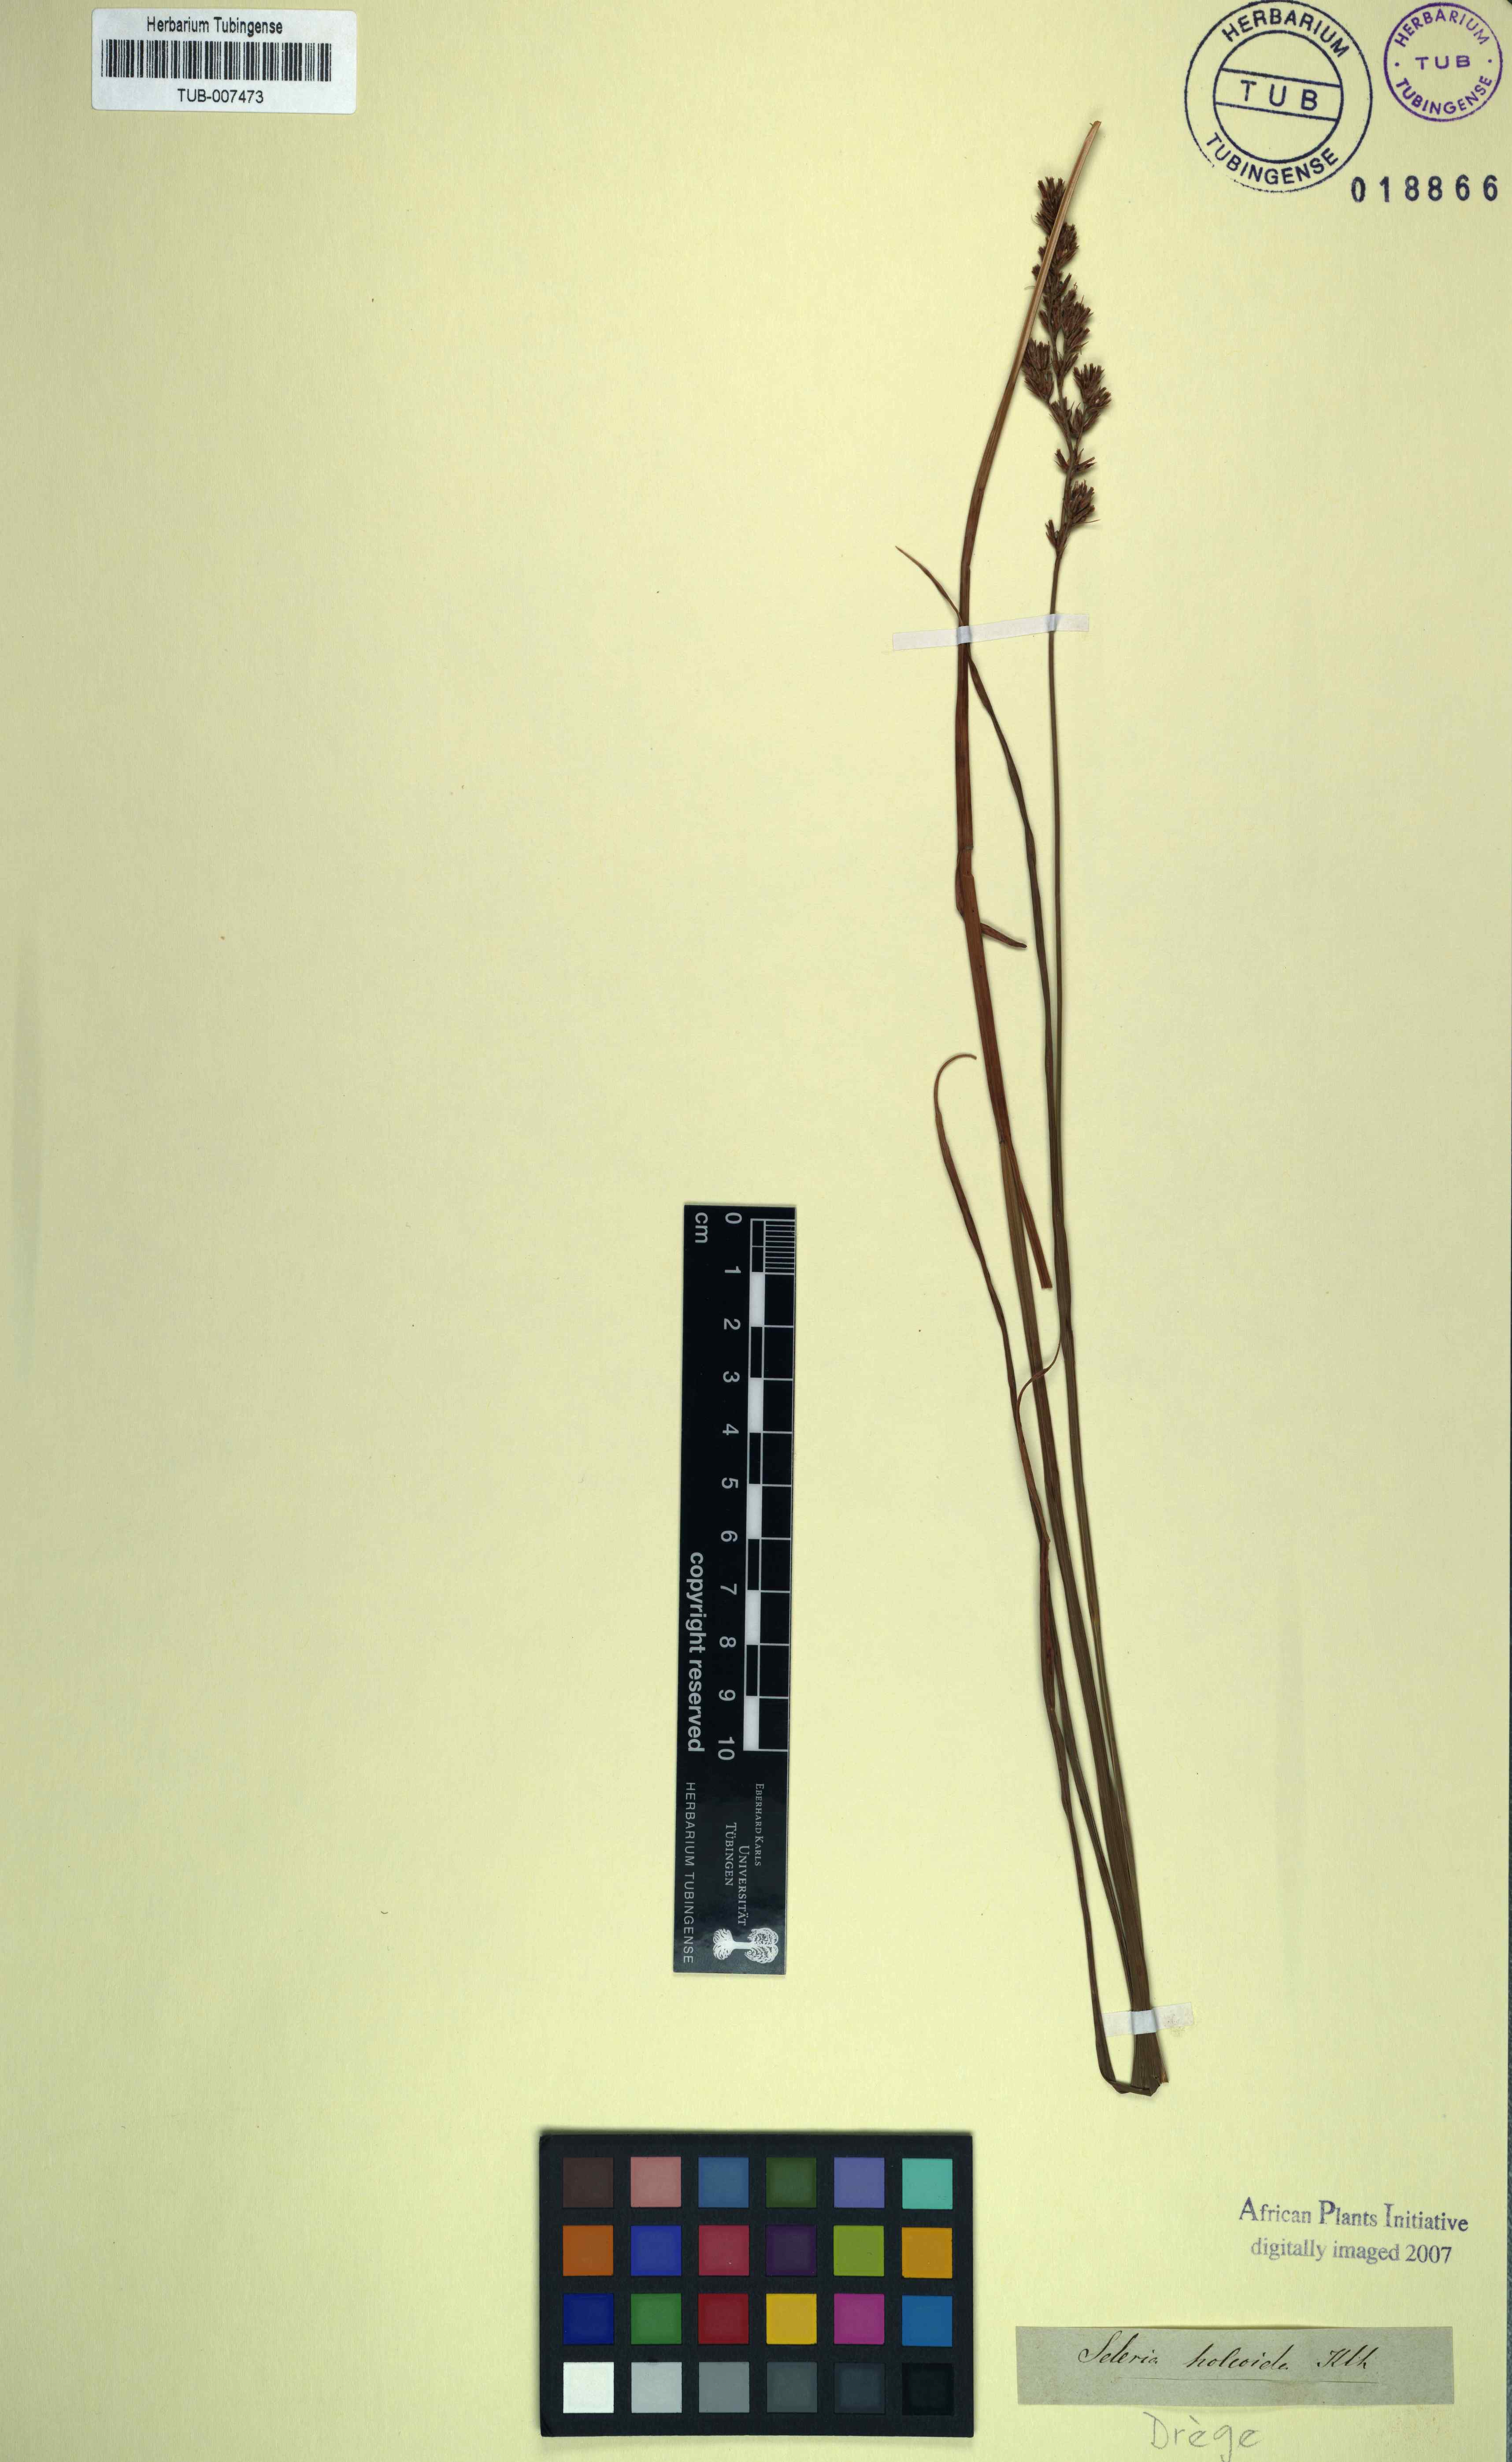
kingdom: Plantae
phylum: Tracheophyta
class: Liliopsida
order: Poales
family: Cyperaceae
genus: Scleria
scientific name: Scleria dregeana
